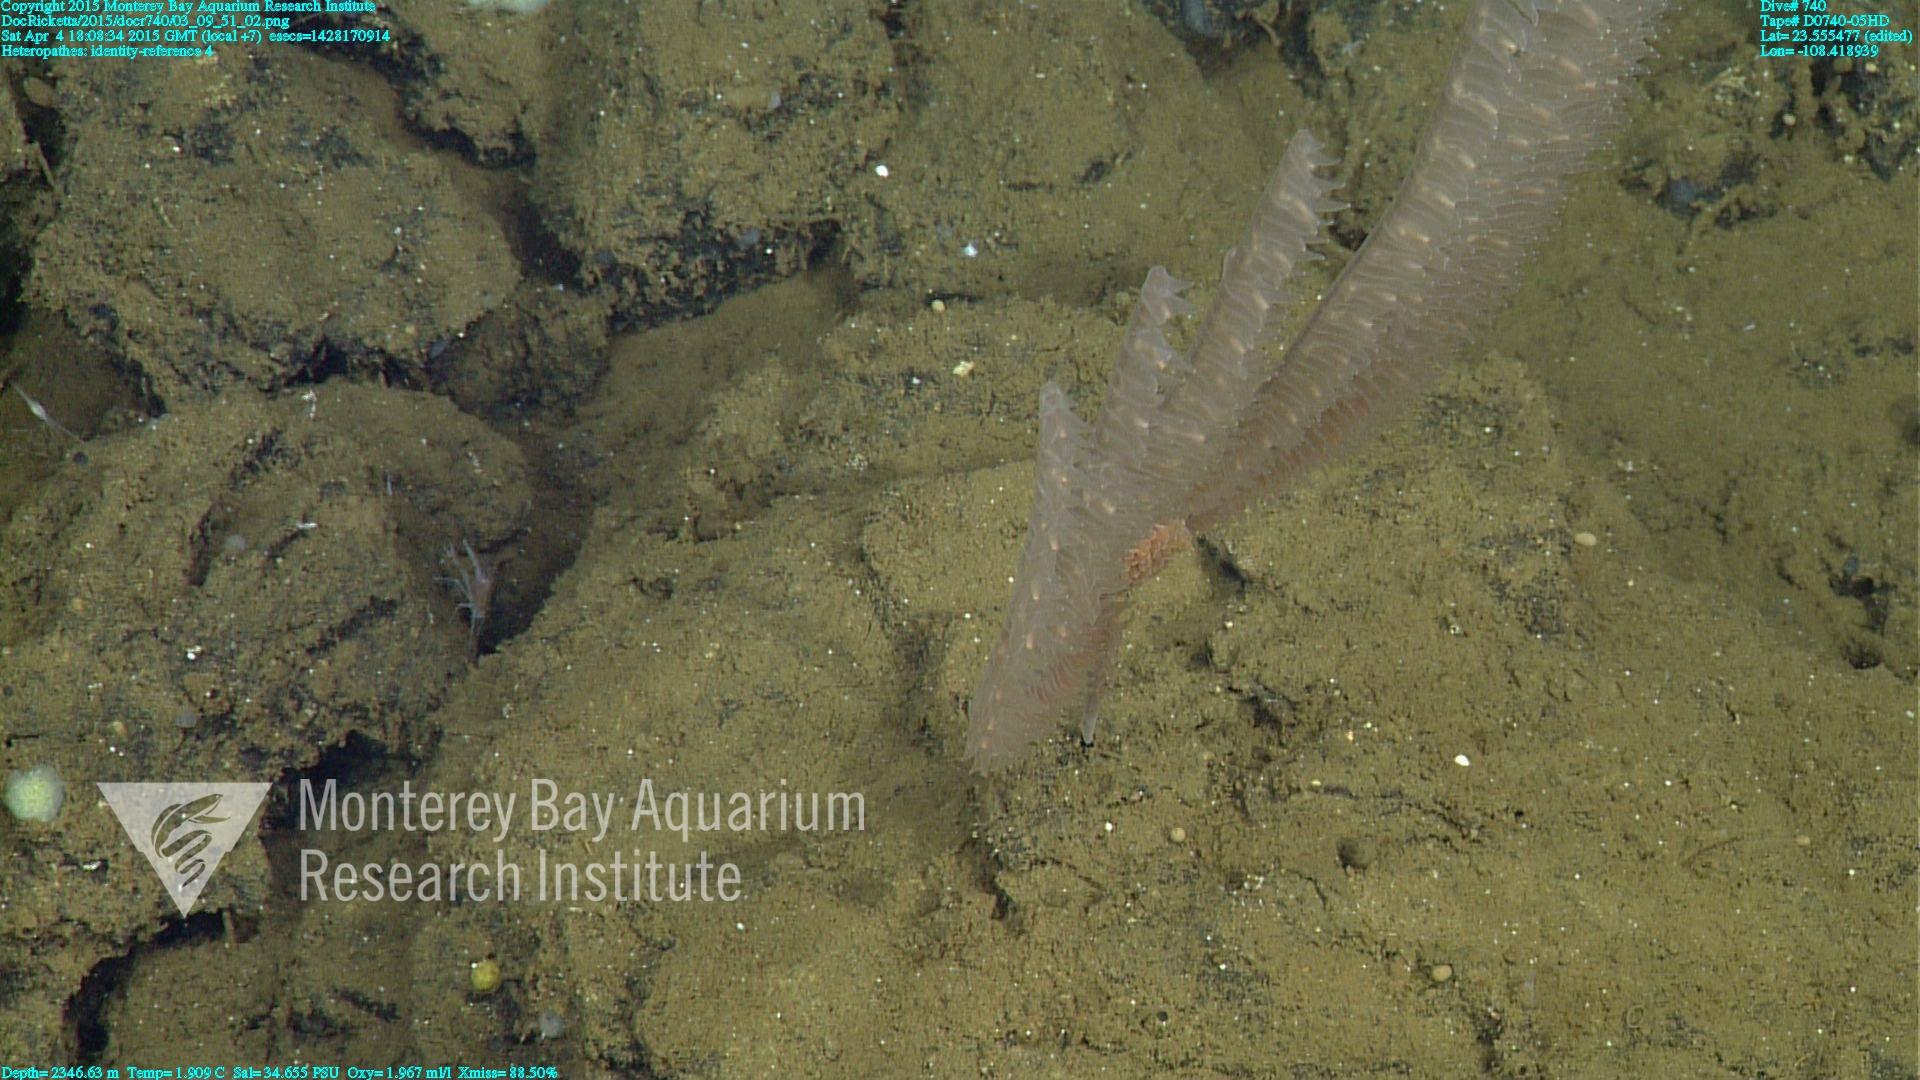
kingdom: Animalia
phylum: Cnidaria
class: Anthozoa
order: Antipatharia
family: Cladopathidae
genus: Heteropathes
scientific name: Heteropathes
